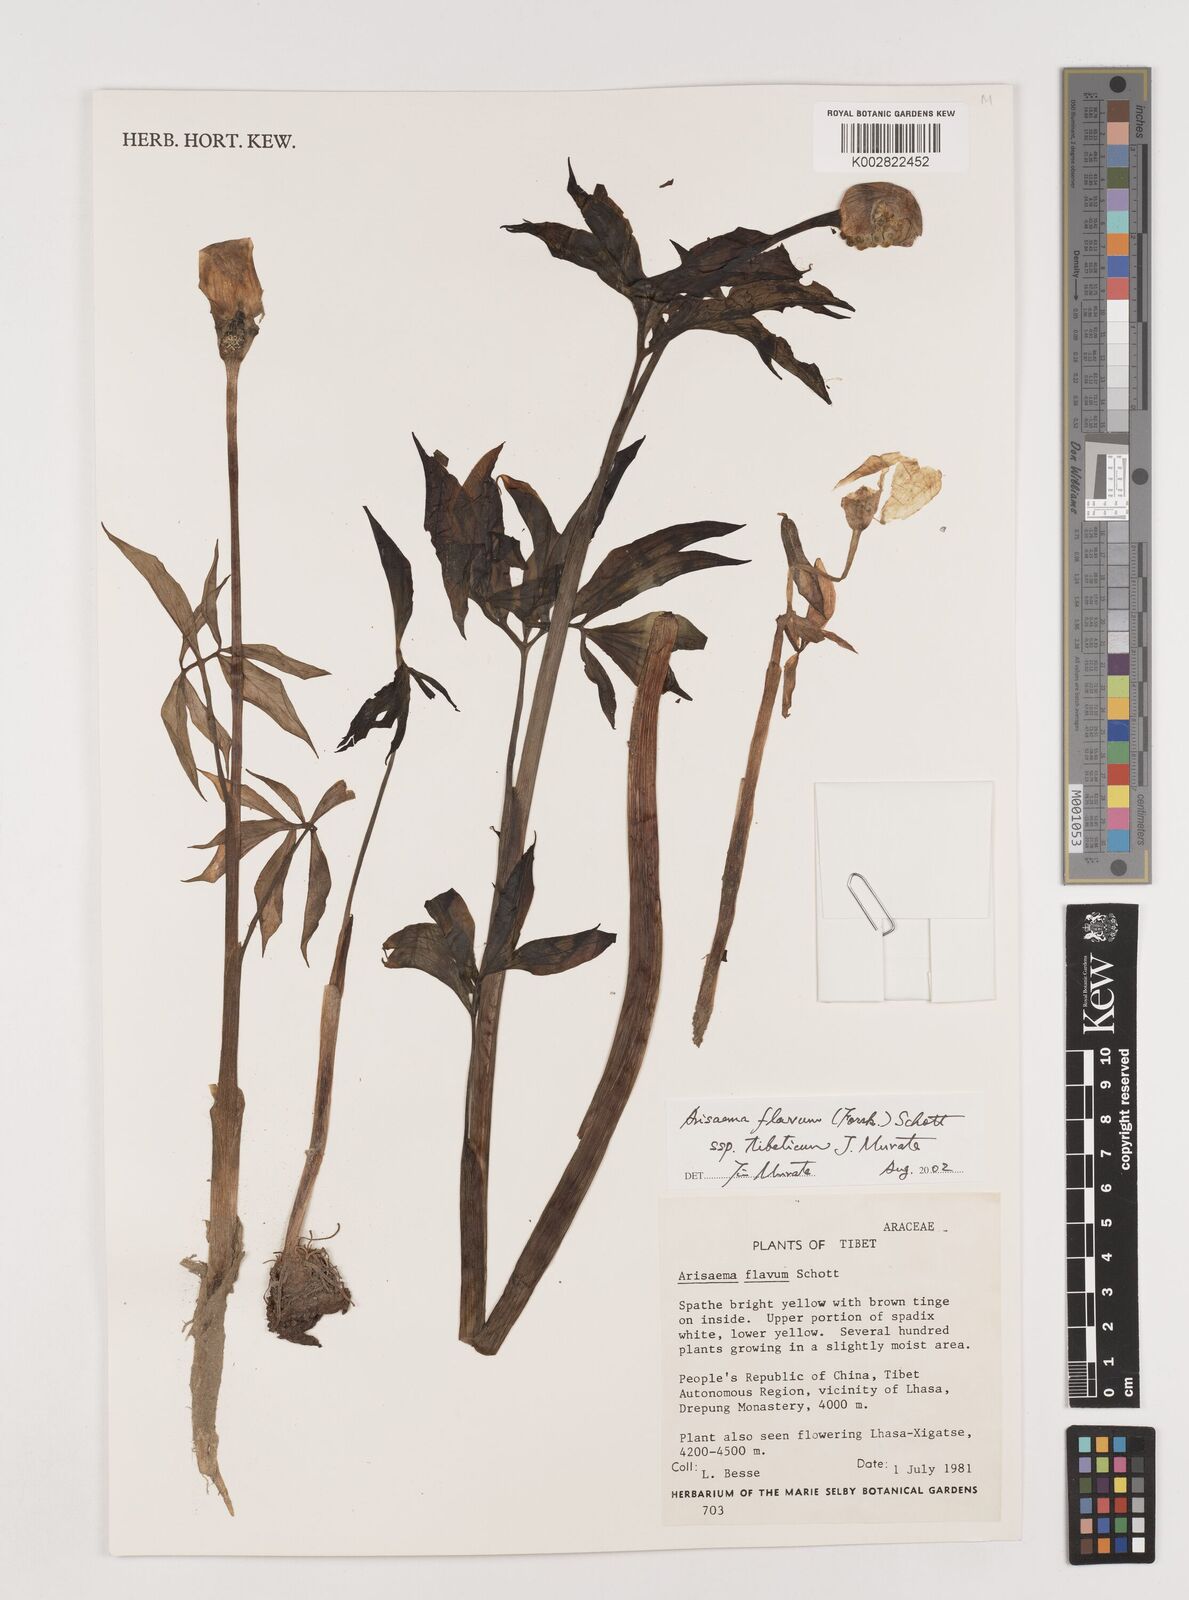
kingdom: Plantae
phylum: Tracheophyta
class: Liliopsida
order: Alismatales
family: Araceae
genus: Arisaema
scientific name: Arisaema flavum
